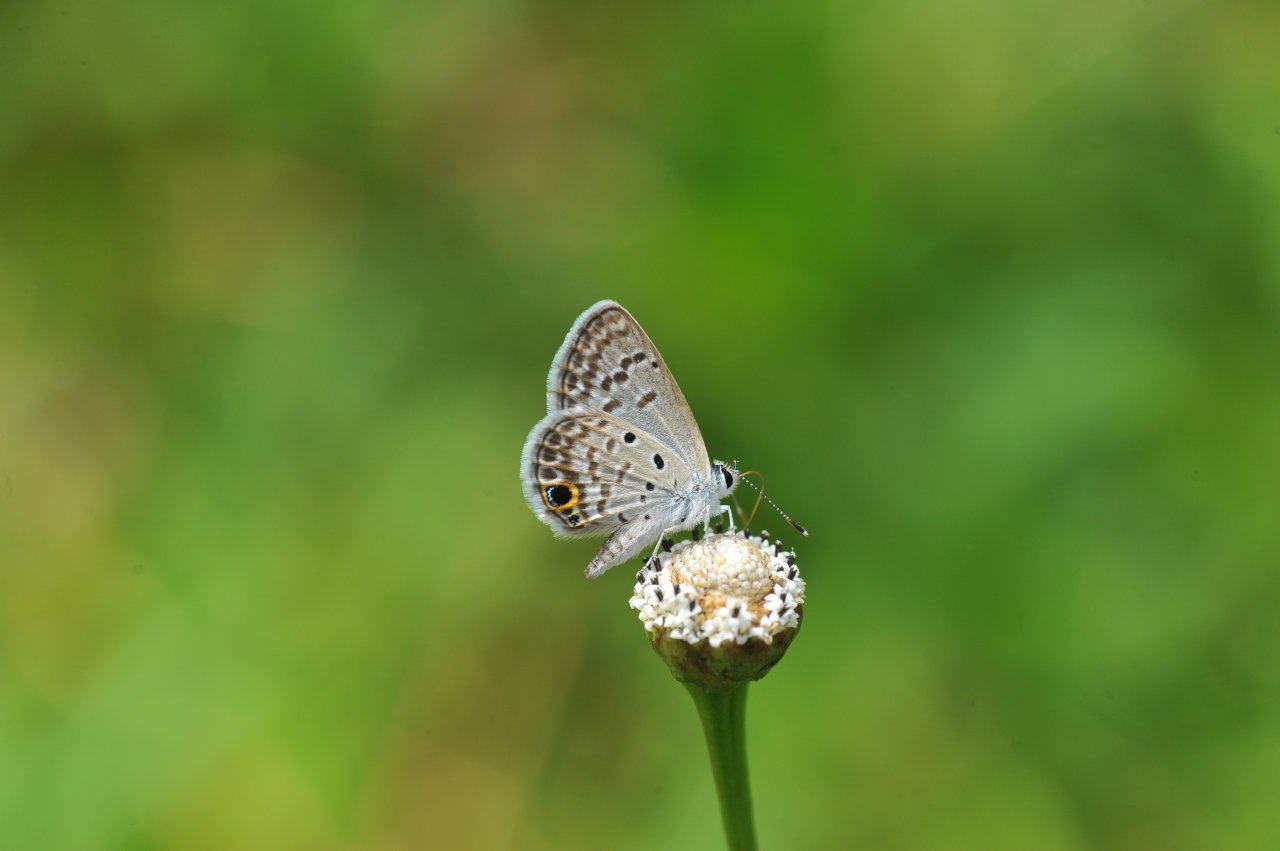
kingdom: Animalia
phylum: Arthropoda
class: Insecta
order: Lepidoptera
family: Lycaenidae
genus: Hemiargus
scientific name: Hemiargus ceraunus
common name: Ceraunus Blue
